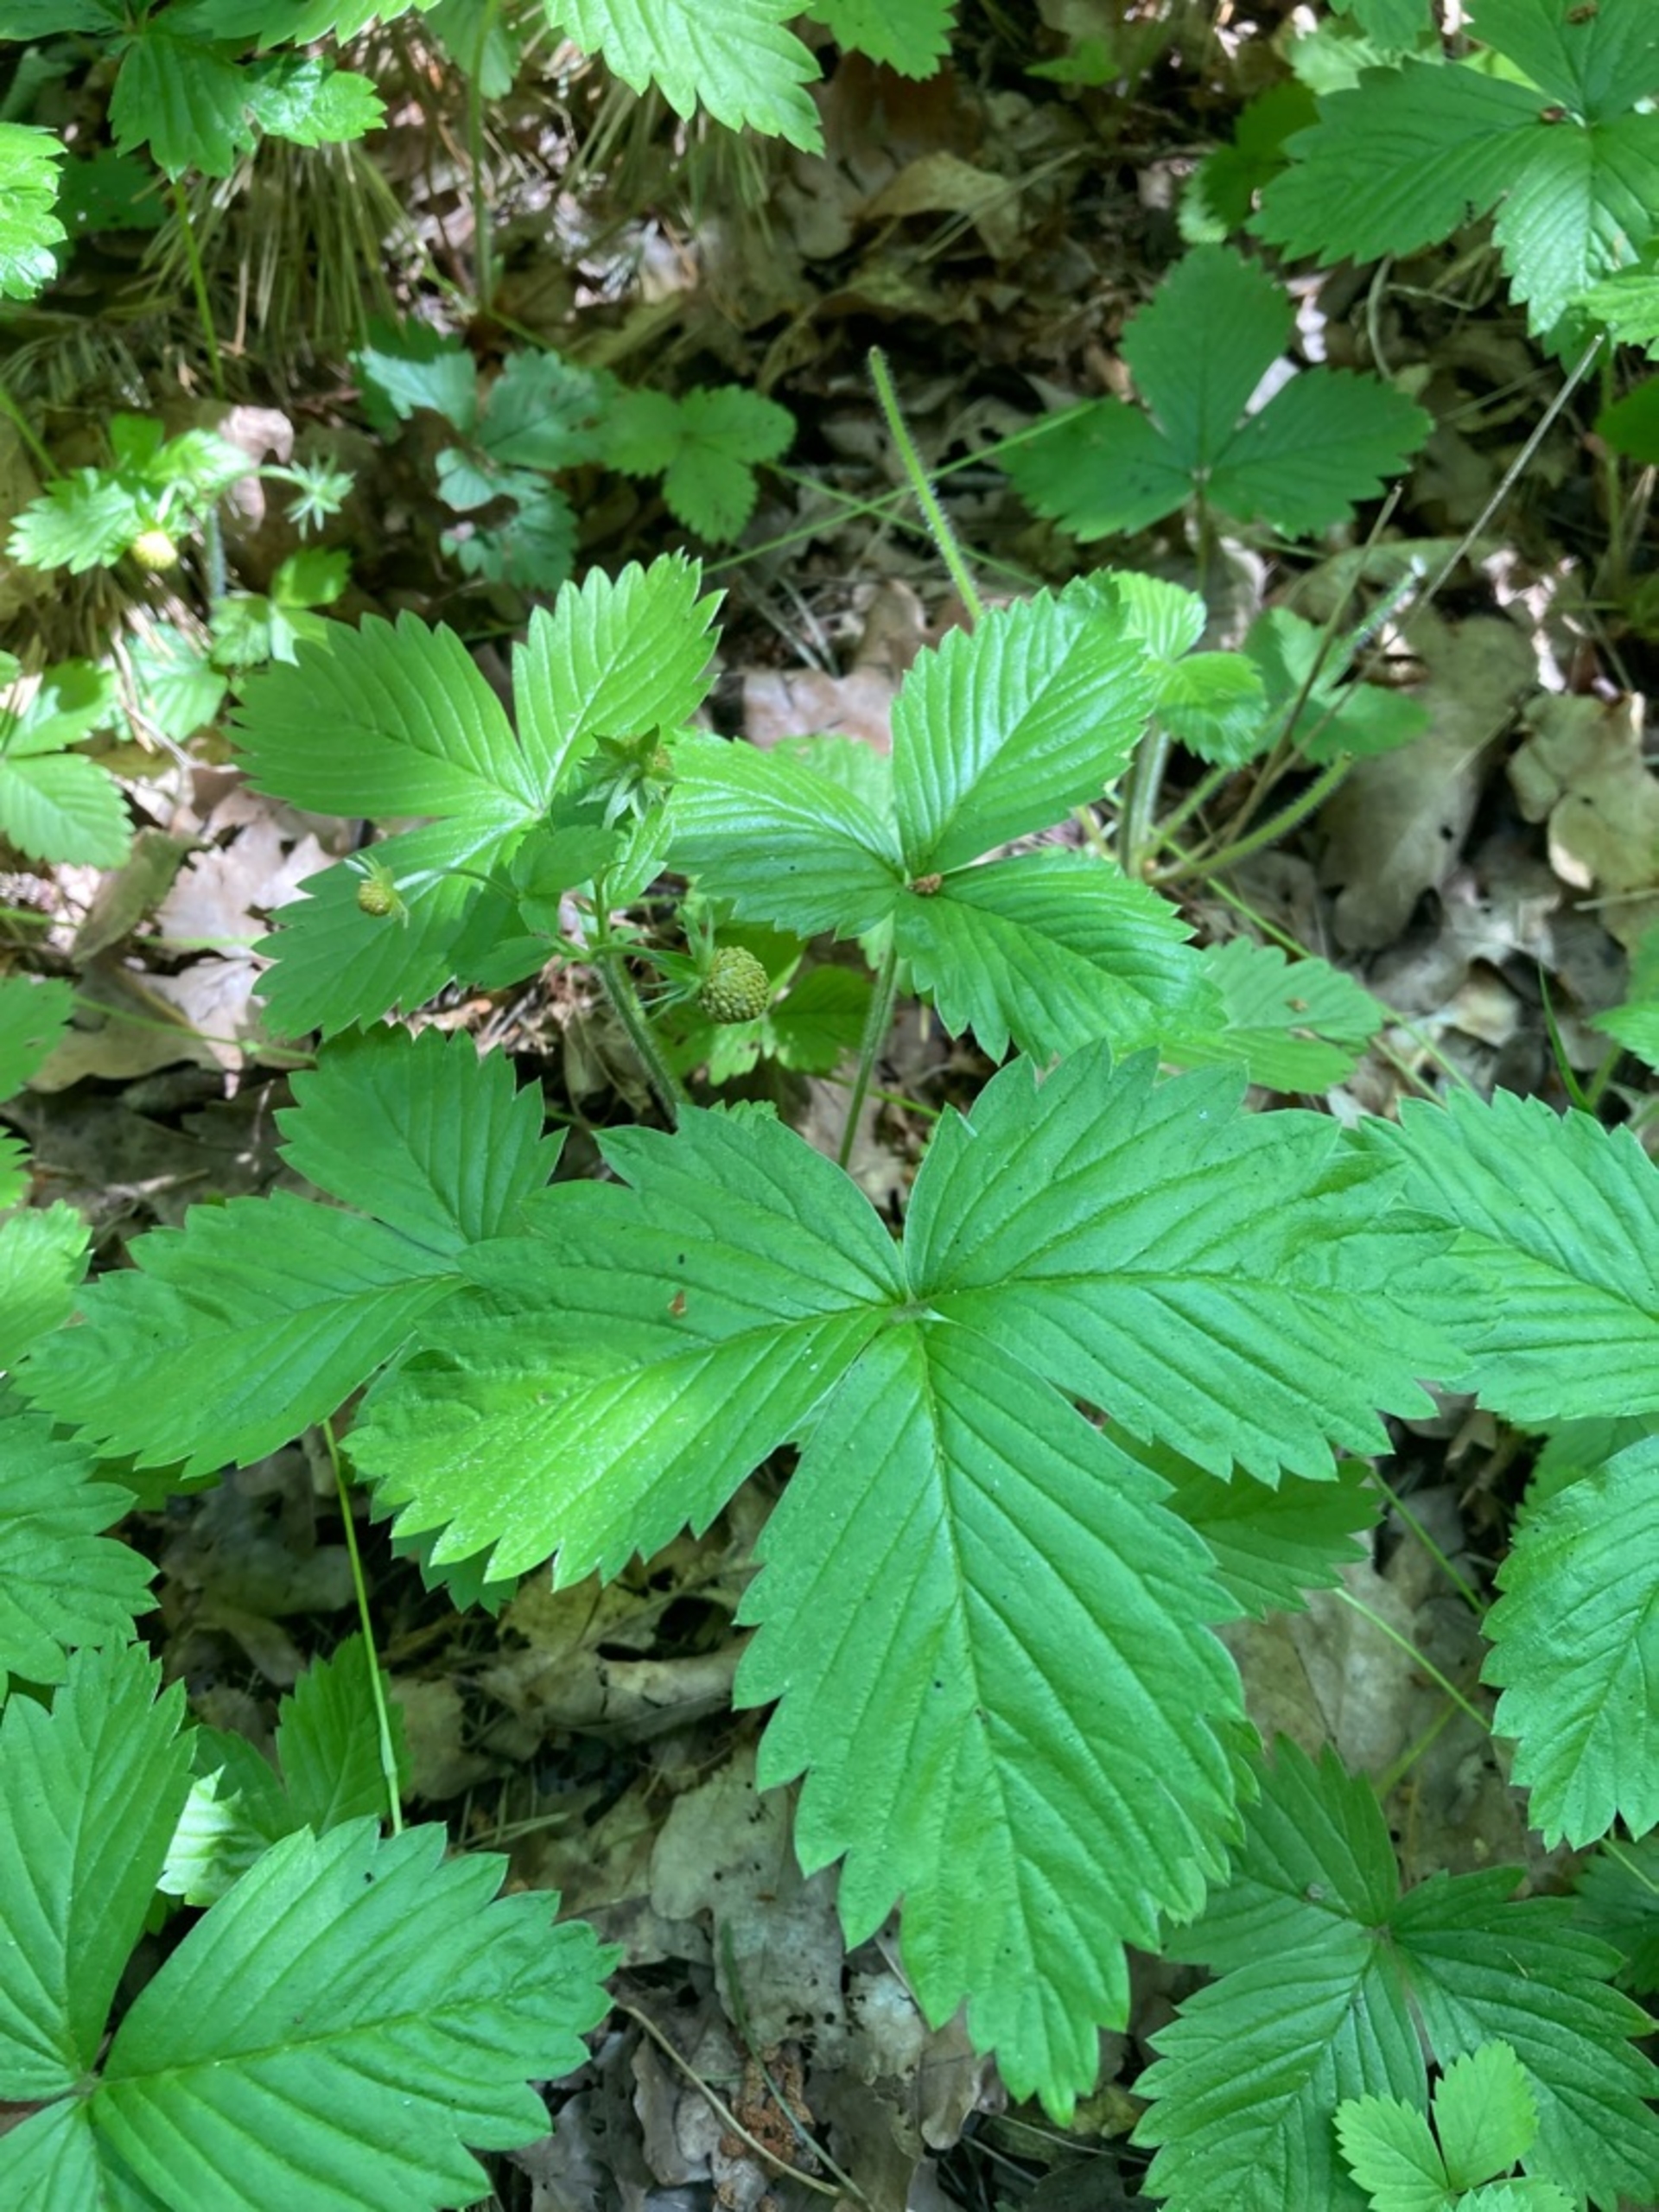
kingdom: Plantae
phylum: Tracheophyta
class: Magnoliopsida
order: Rosales
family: Rosaceae
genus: Fragaria
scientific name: Fragaria vesca
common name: Skov-jordbær
